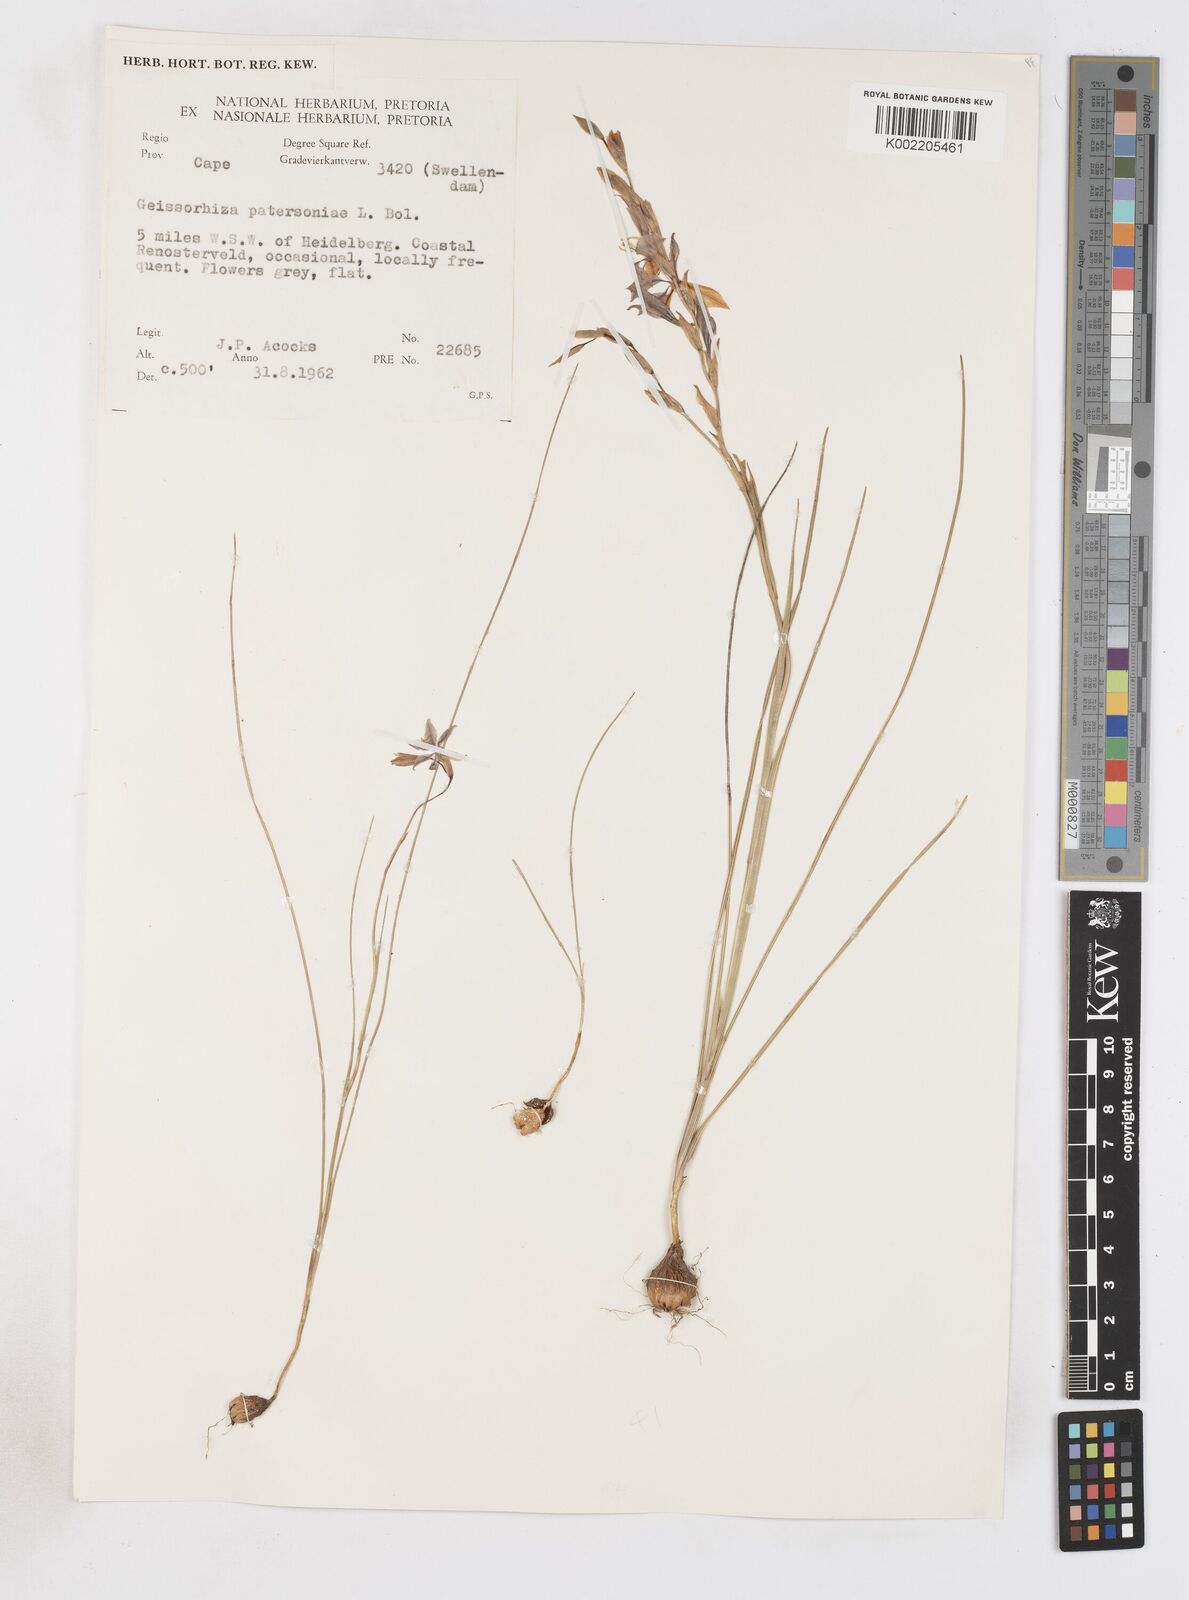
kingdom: Plantae
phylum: Tracheophyta
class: Liliopsida
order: Asparagales
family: Iridaceae
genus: Gladiolus
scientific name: Gladiolus stellatus
